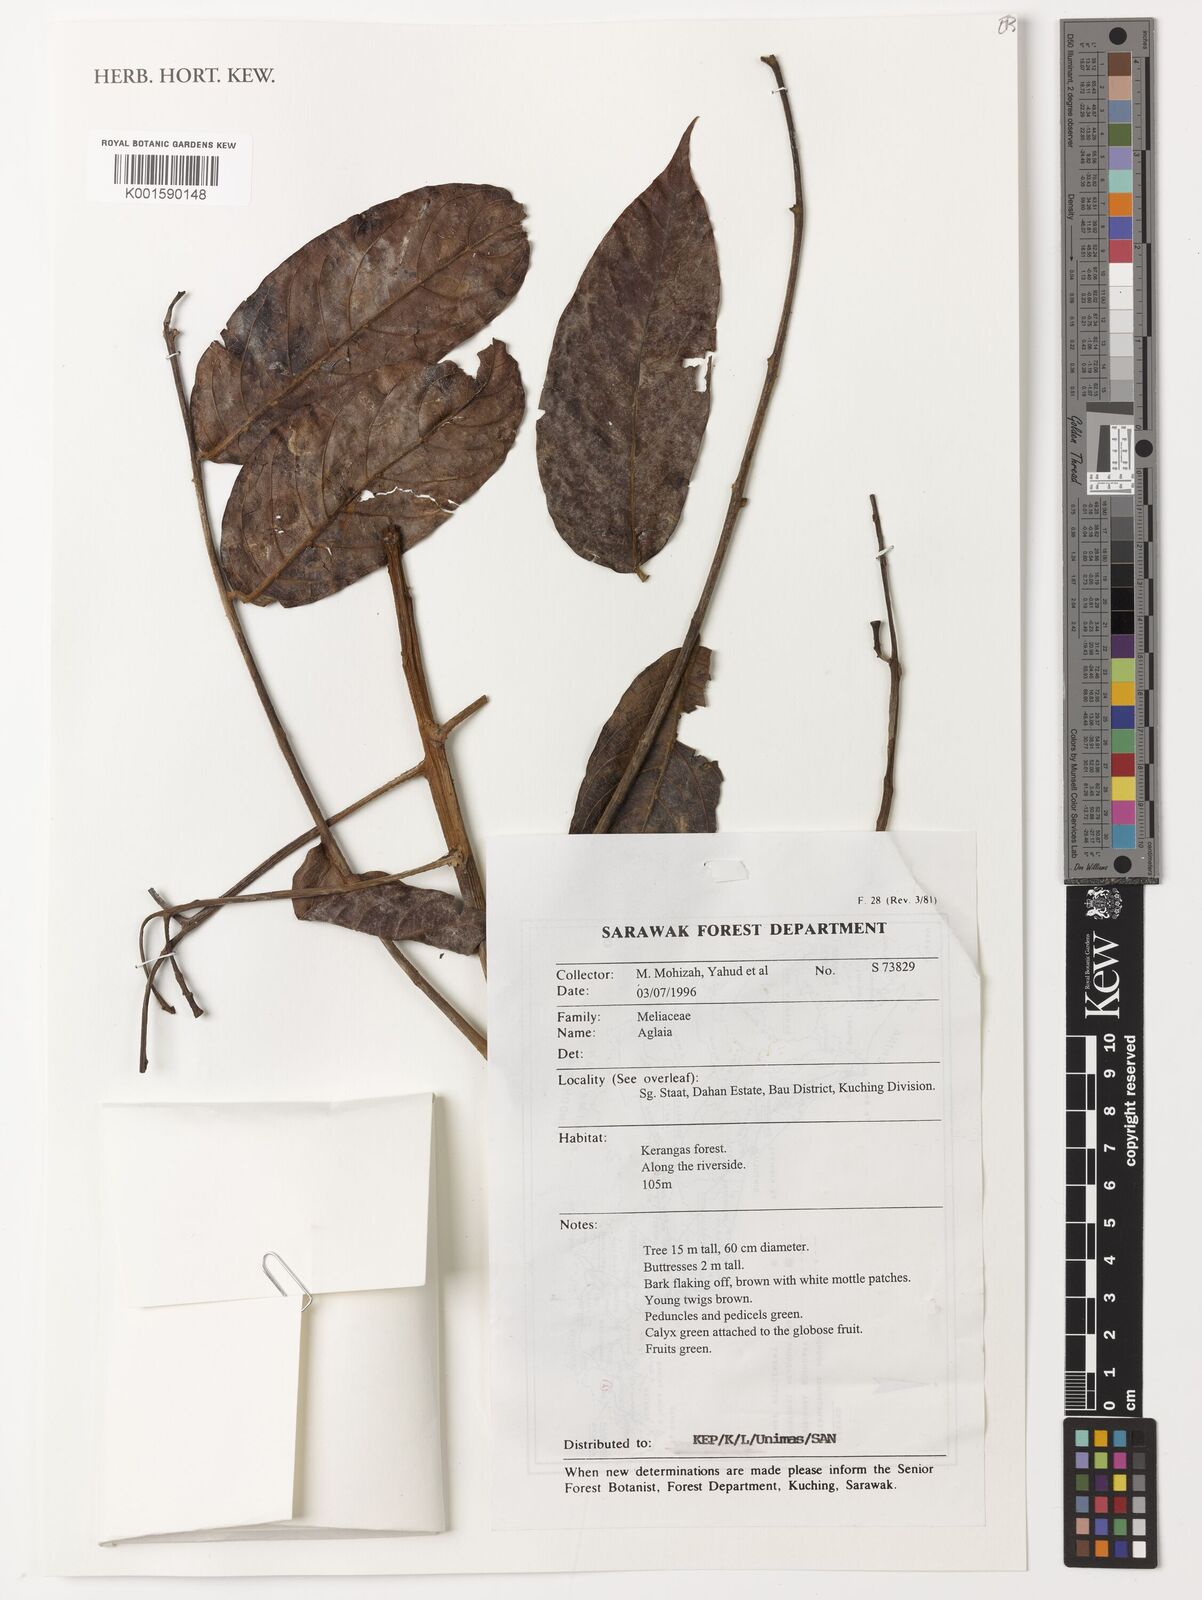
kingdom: Plantae
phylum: Tracheophyta
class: Magnoliopsida
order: Sapindales
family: Meliaceae
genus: Aglaia
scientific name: Aglaia
